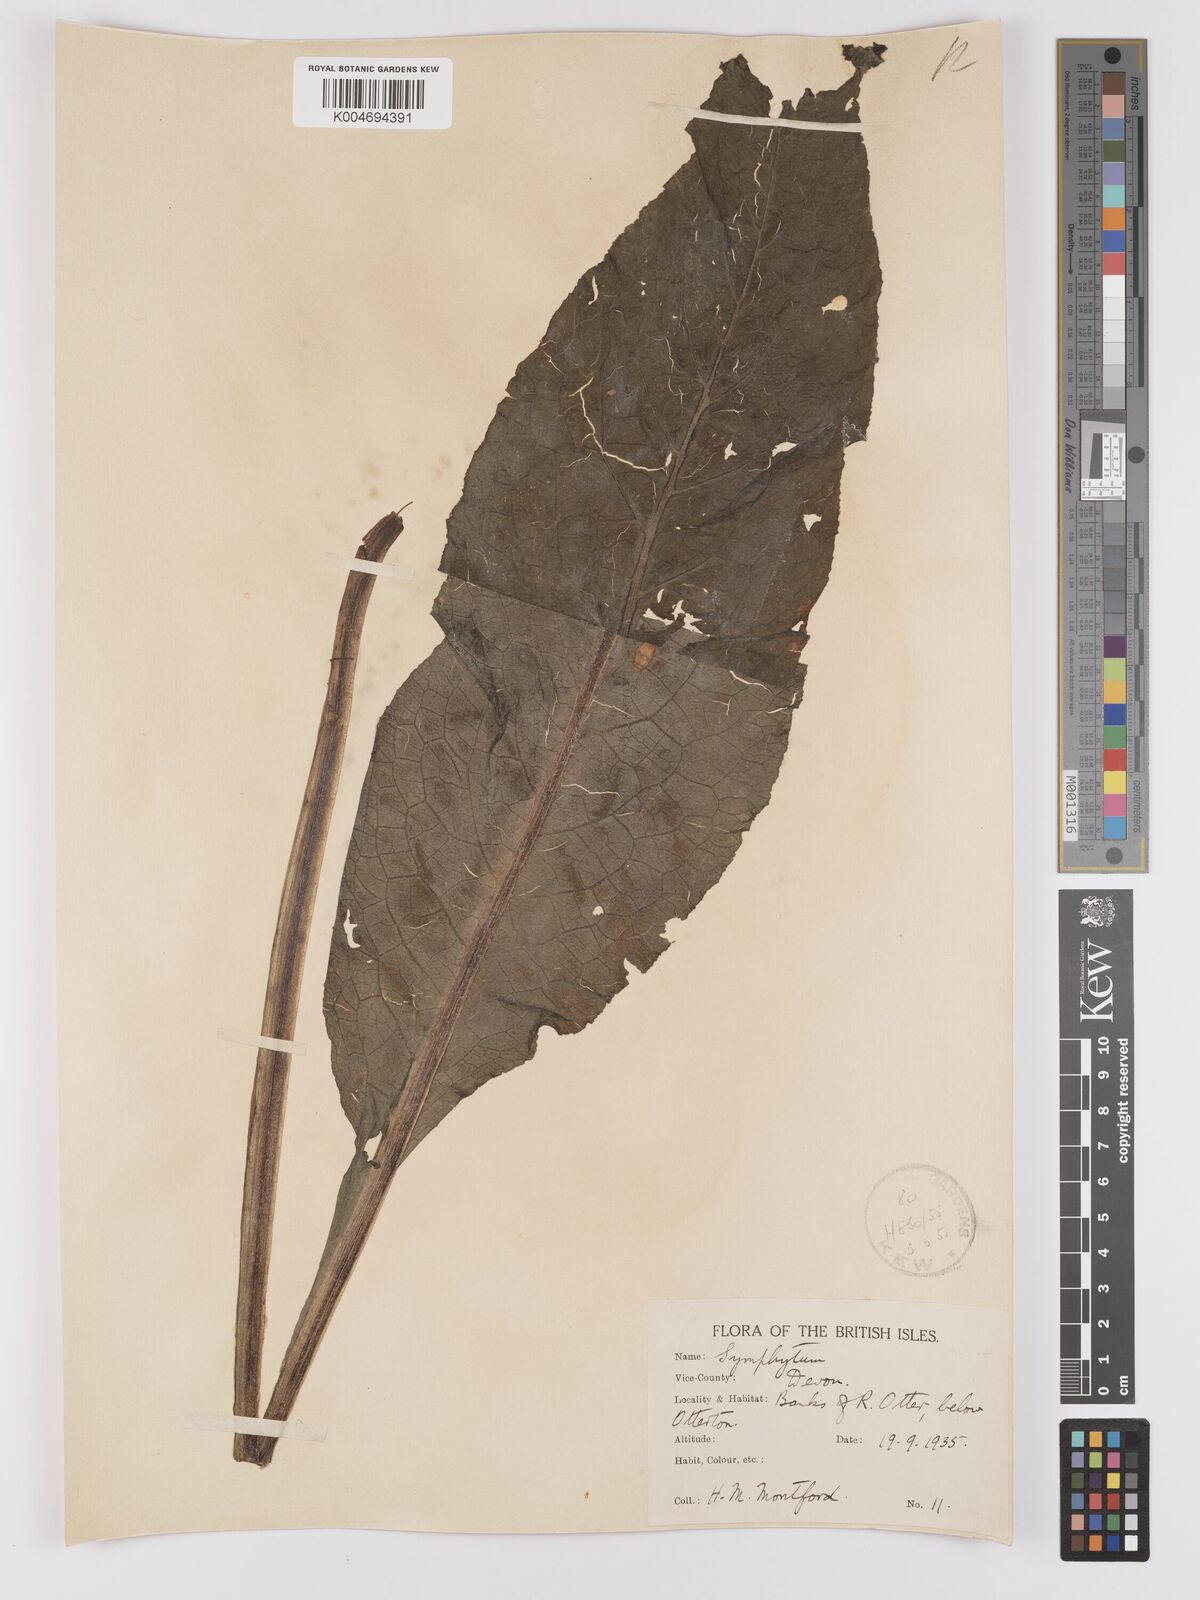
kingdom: Plantae
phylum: Tracheophyta
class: Magnoliopsida
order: Boraginales
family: Boraginaceae
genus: Symphytum
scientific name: Symphytum officinale
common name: Common comfrey
